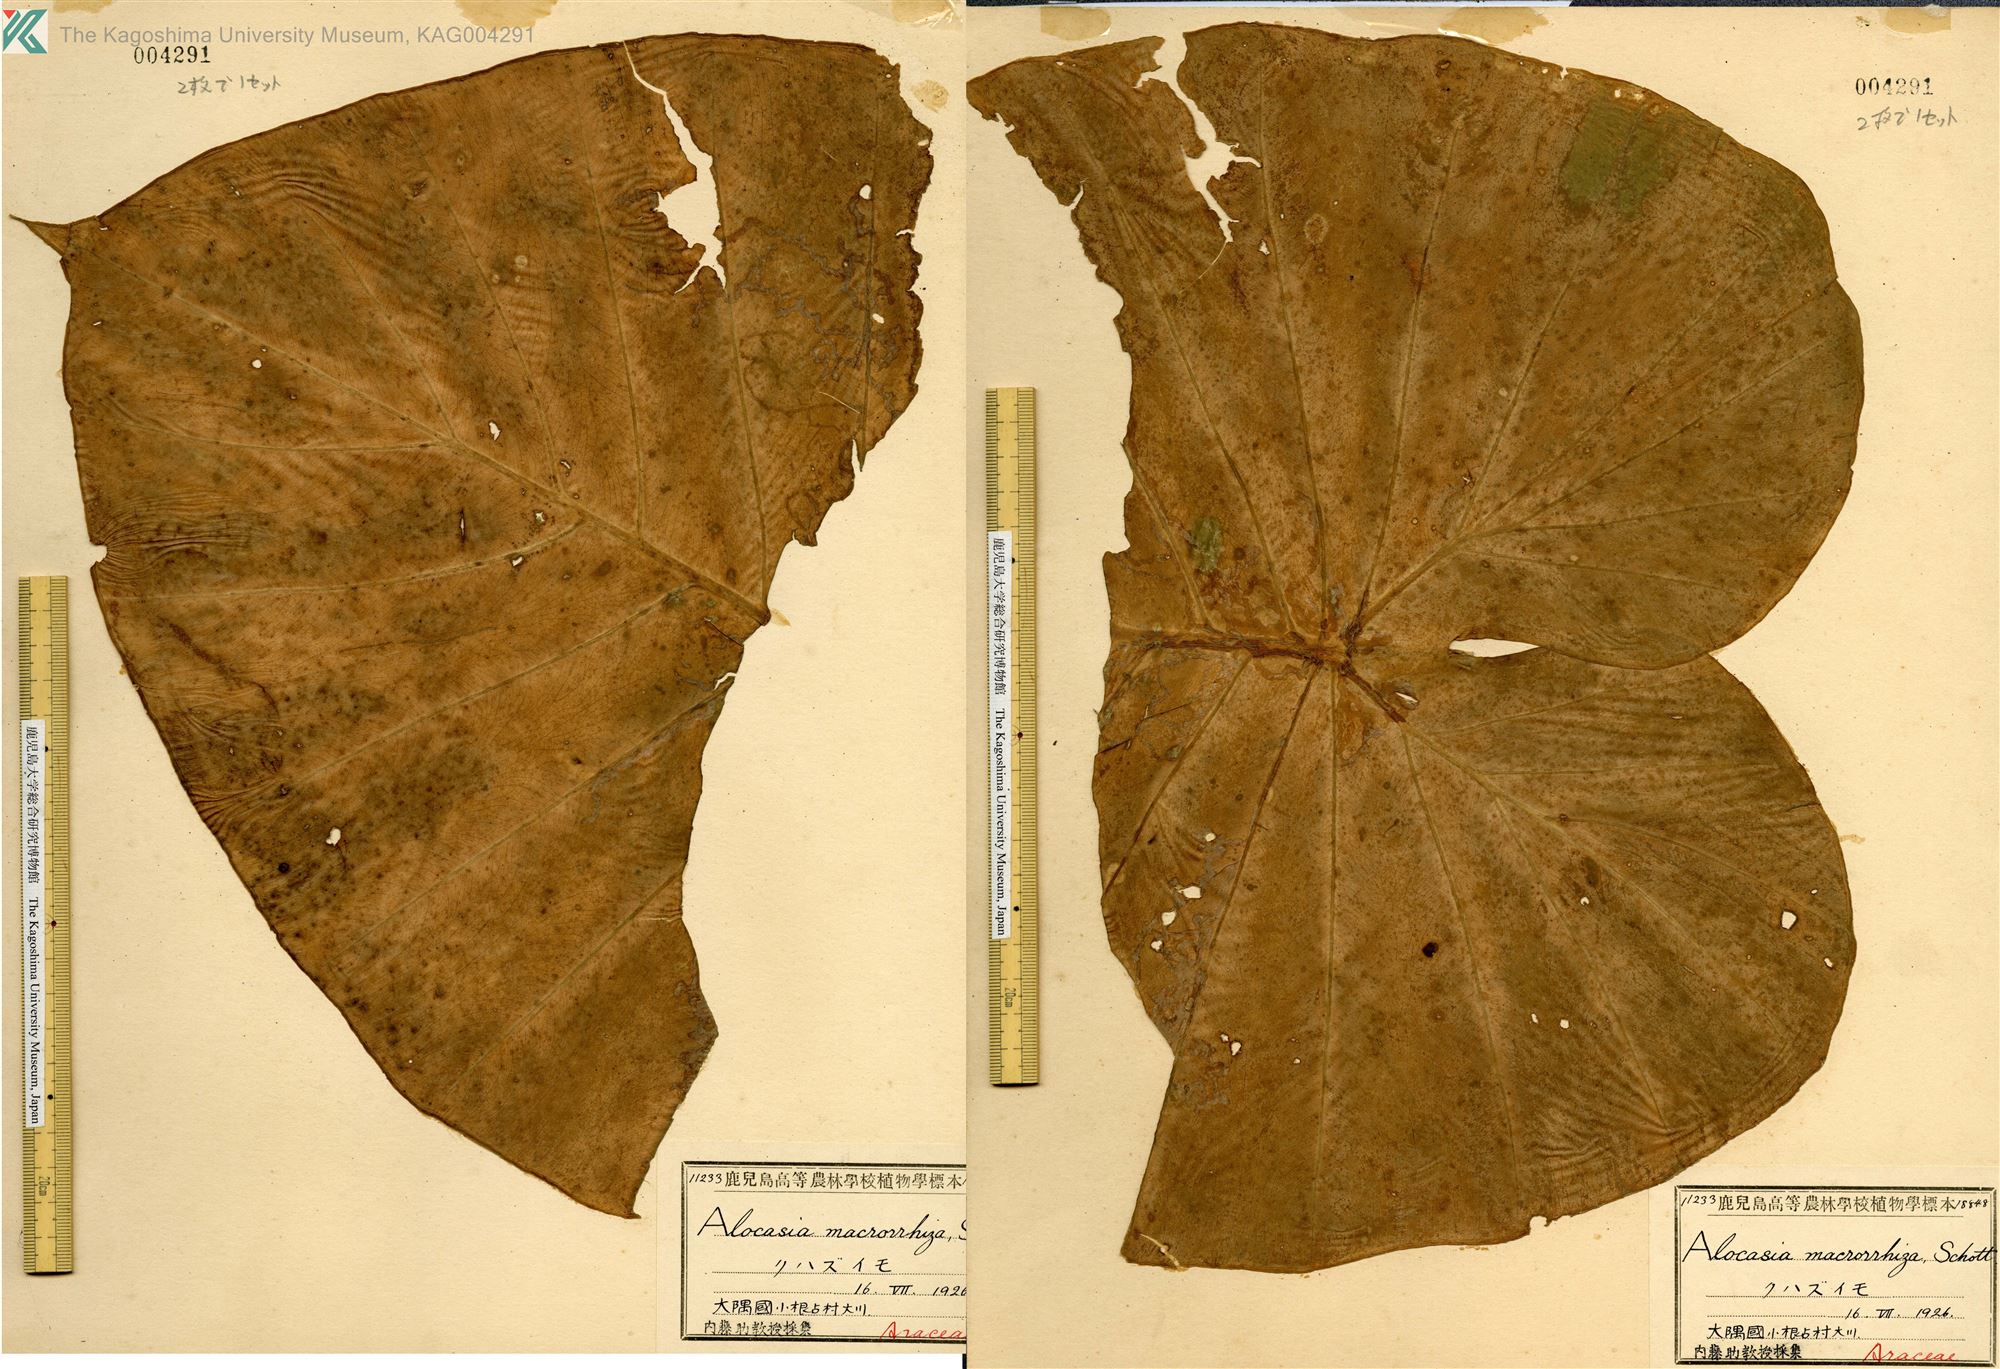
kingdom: Plantae
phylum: Tracheophyta
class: Liliopsida
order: Alismatales
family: Araceae
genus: Alocasia
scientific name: Alocasia odora
